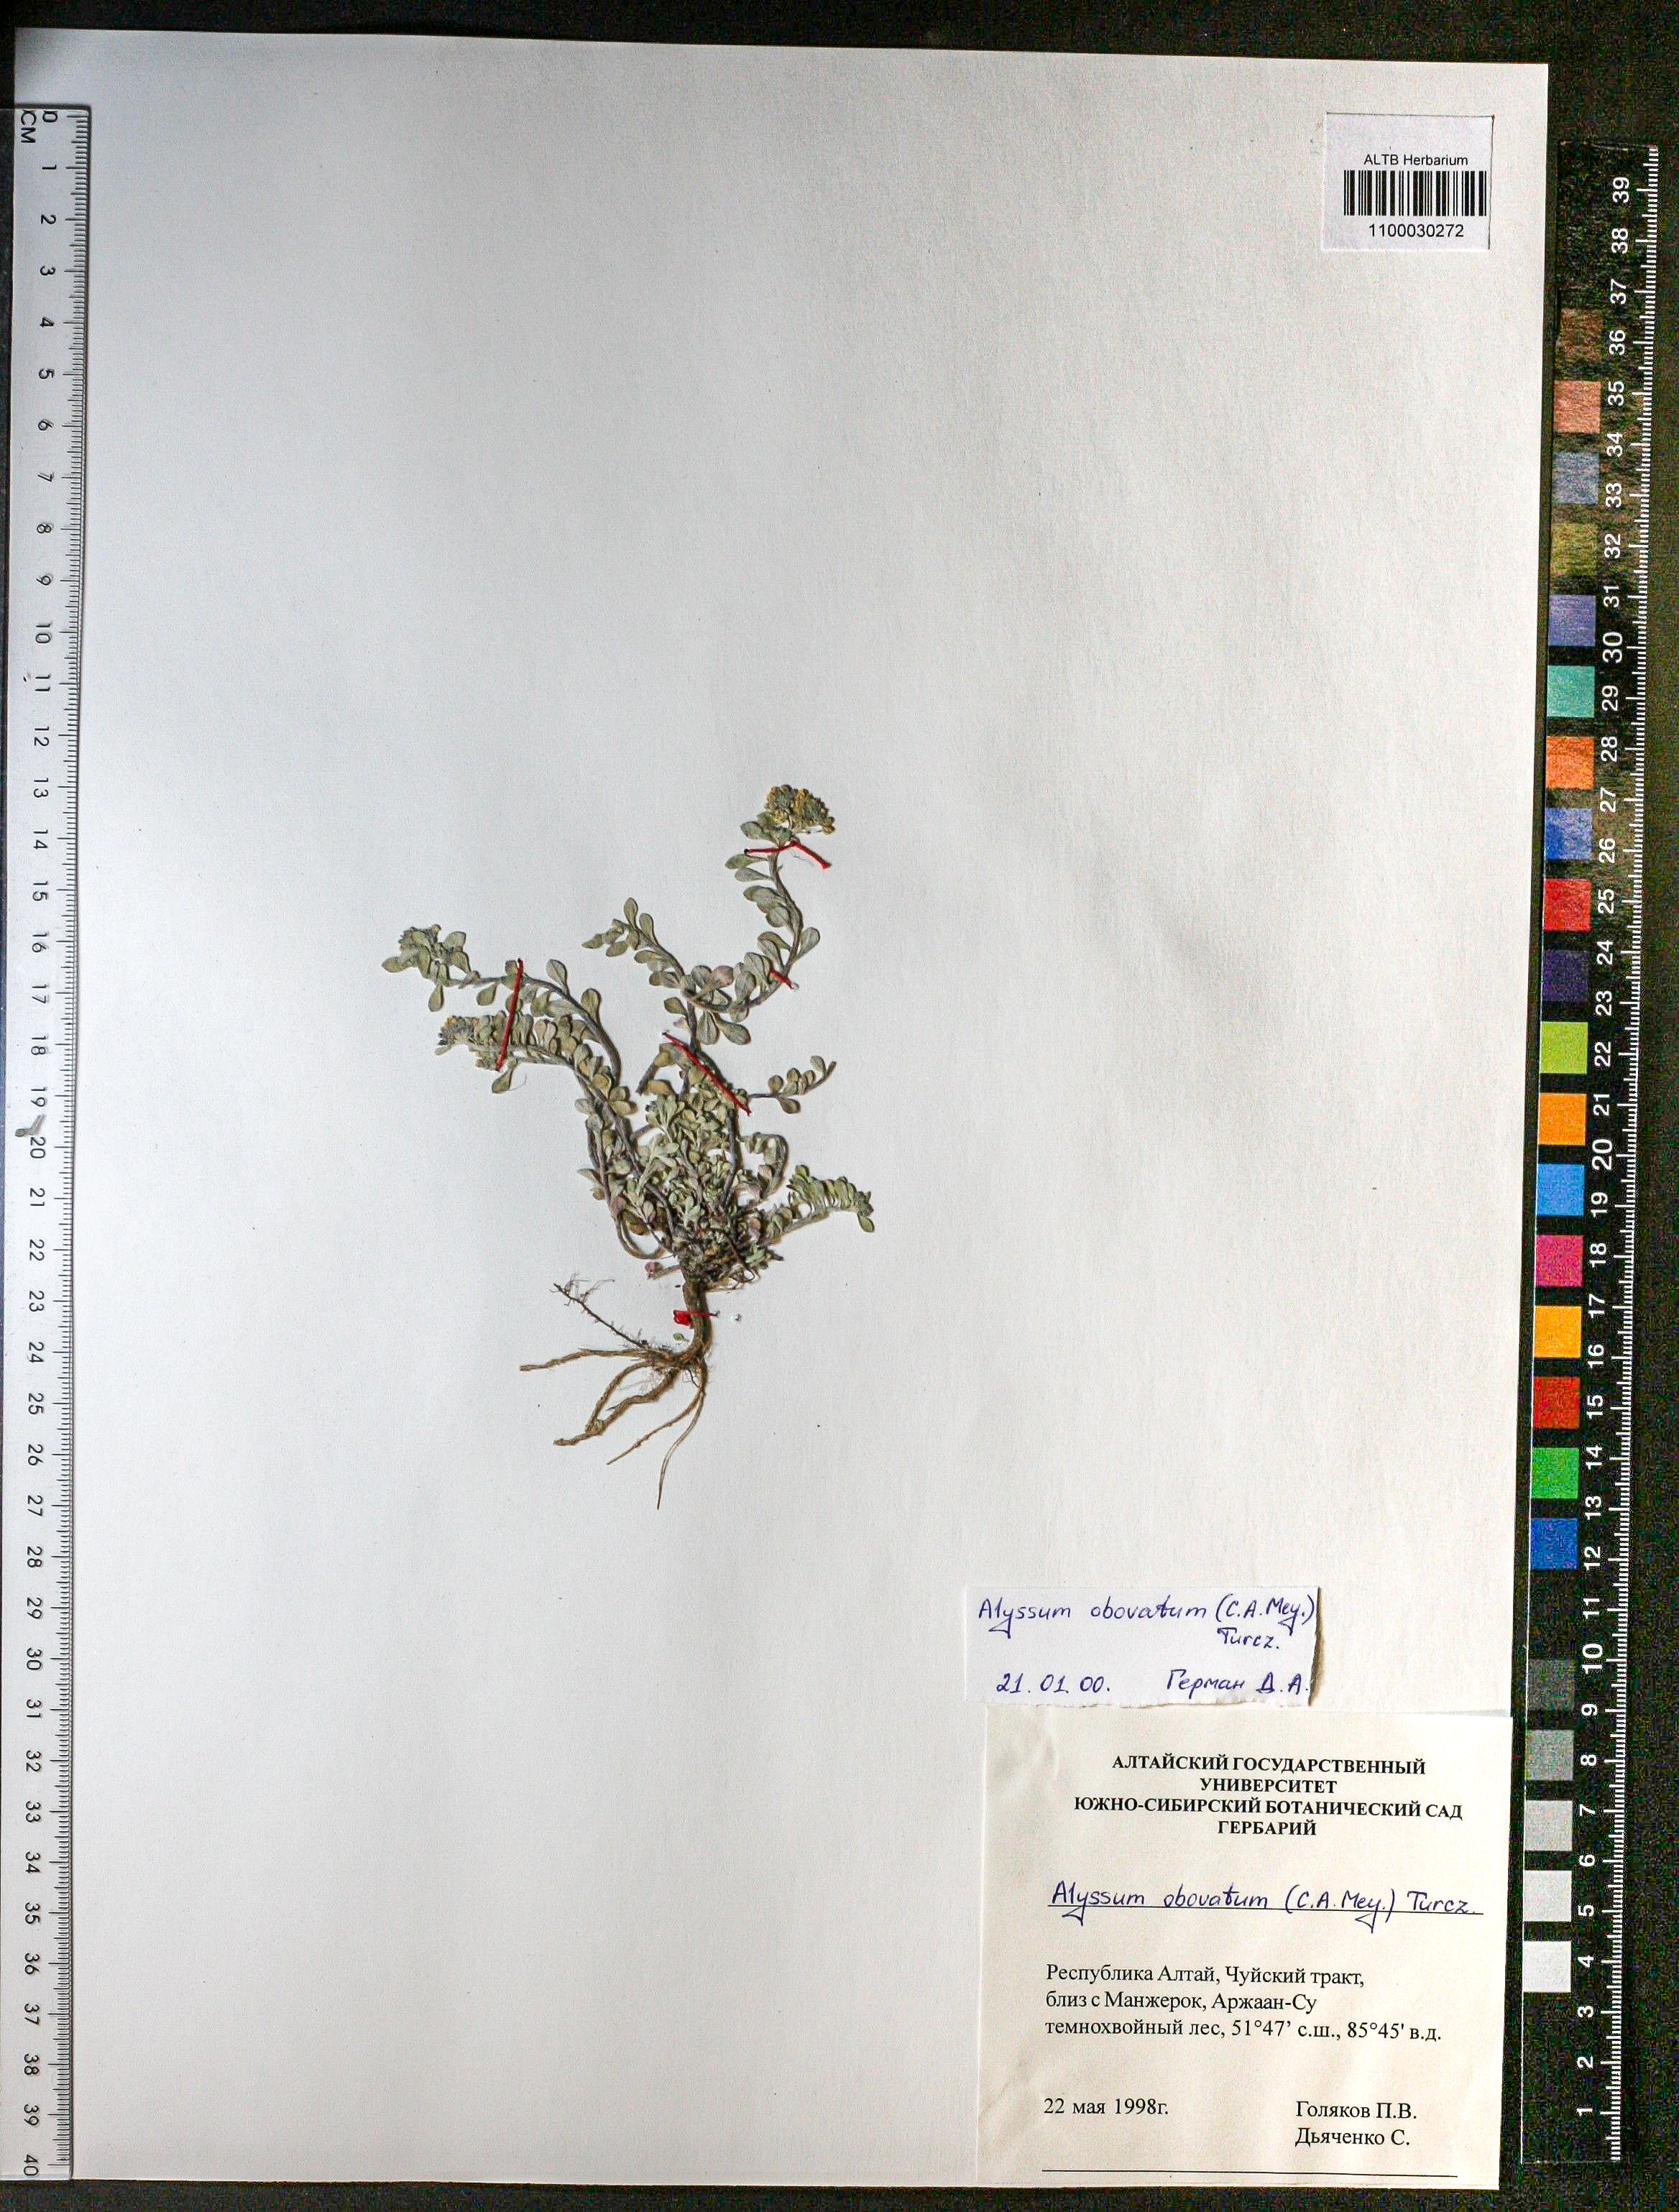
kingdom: Plantae
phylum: Tracheophyta
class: Magnoliopsida
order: Brassicales
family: Brassicaceae
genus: Odontarrhena
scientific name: Odontarrhena obovata
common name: American alyssum
